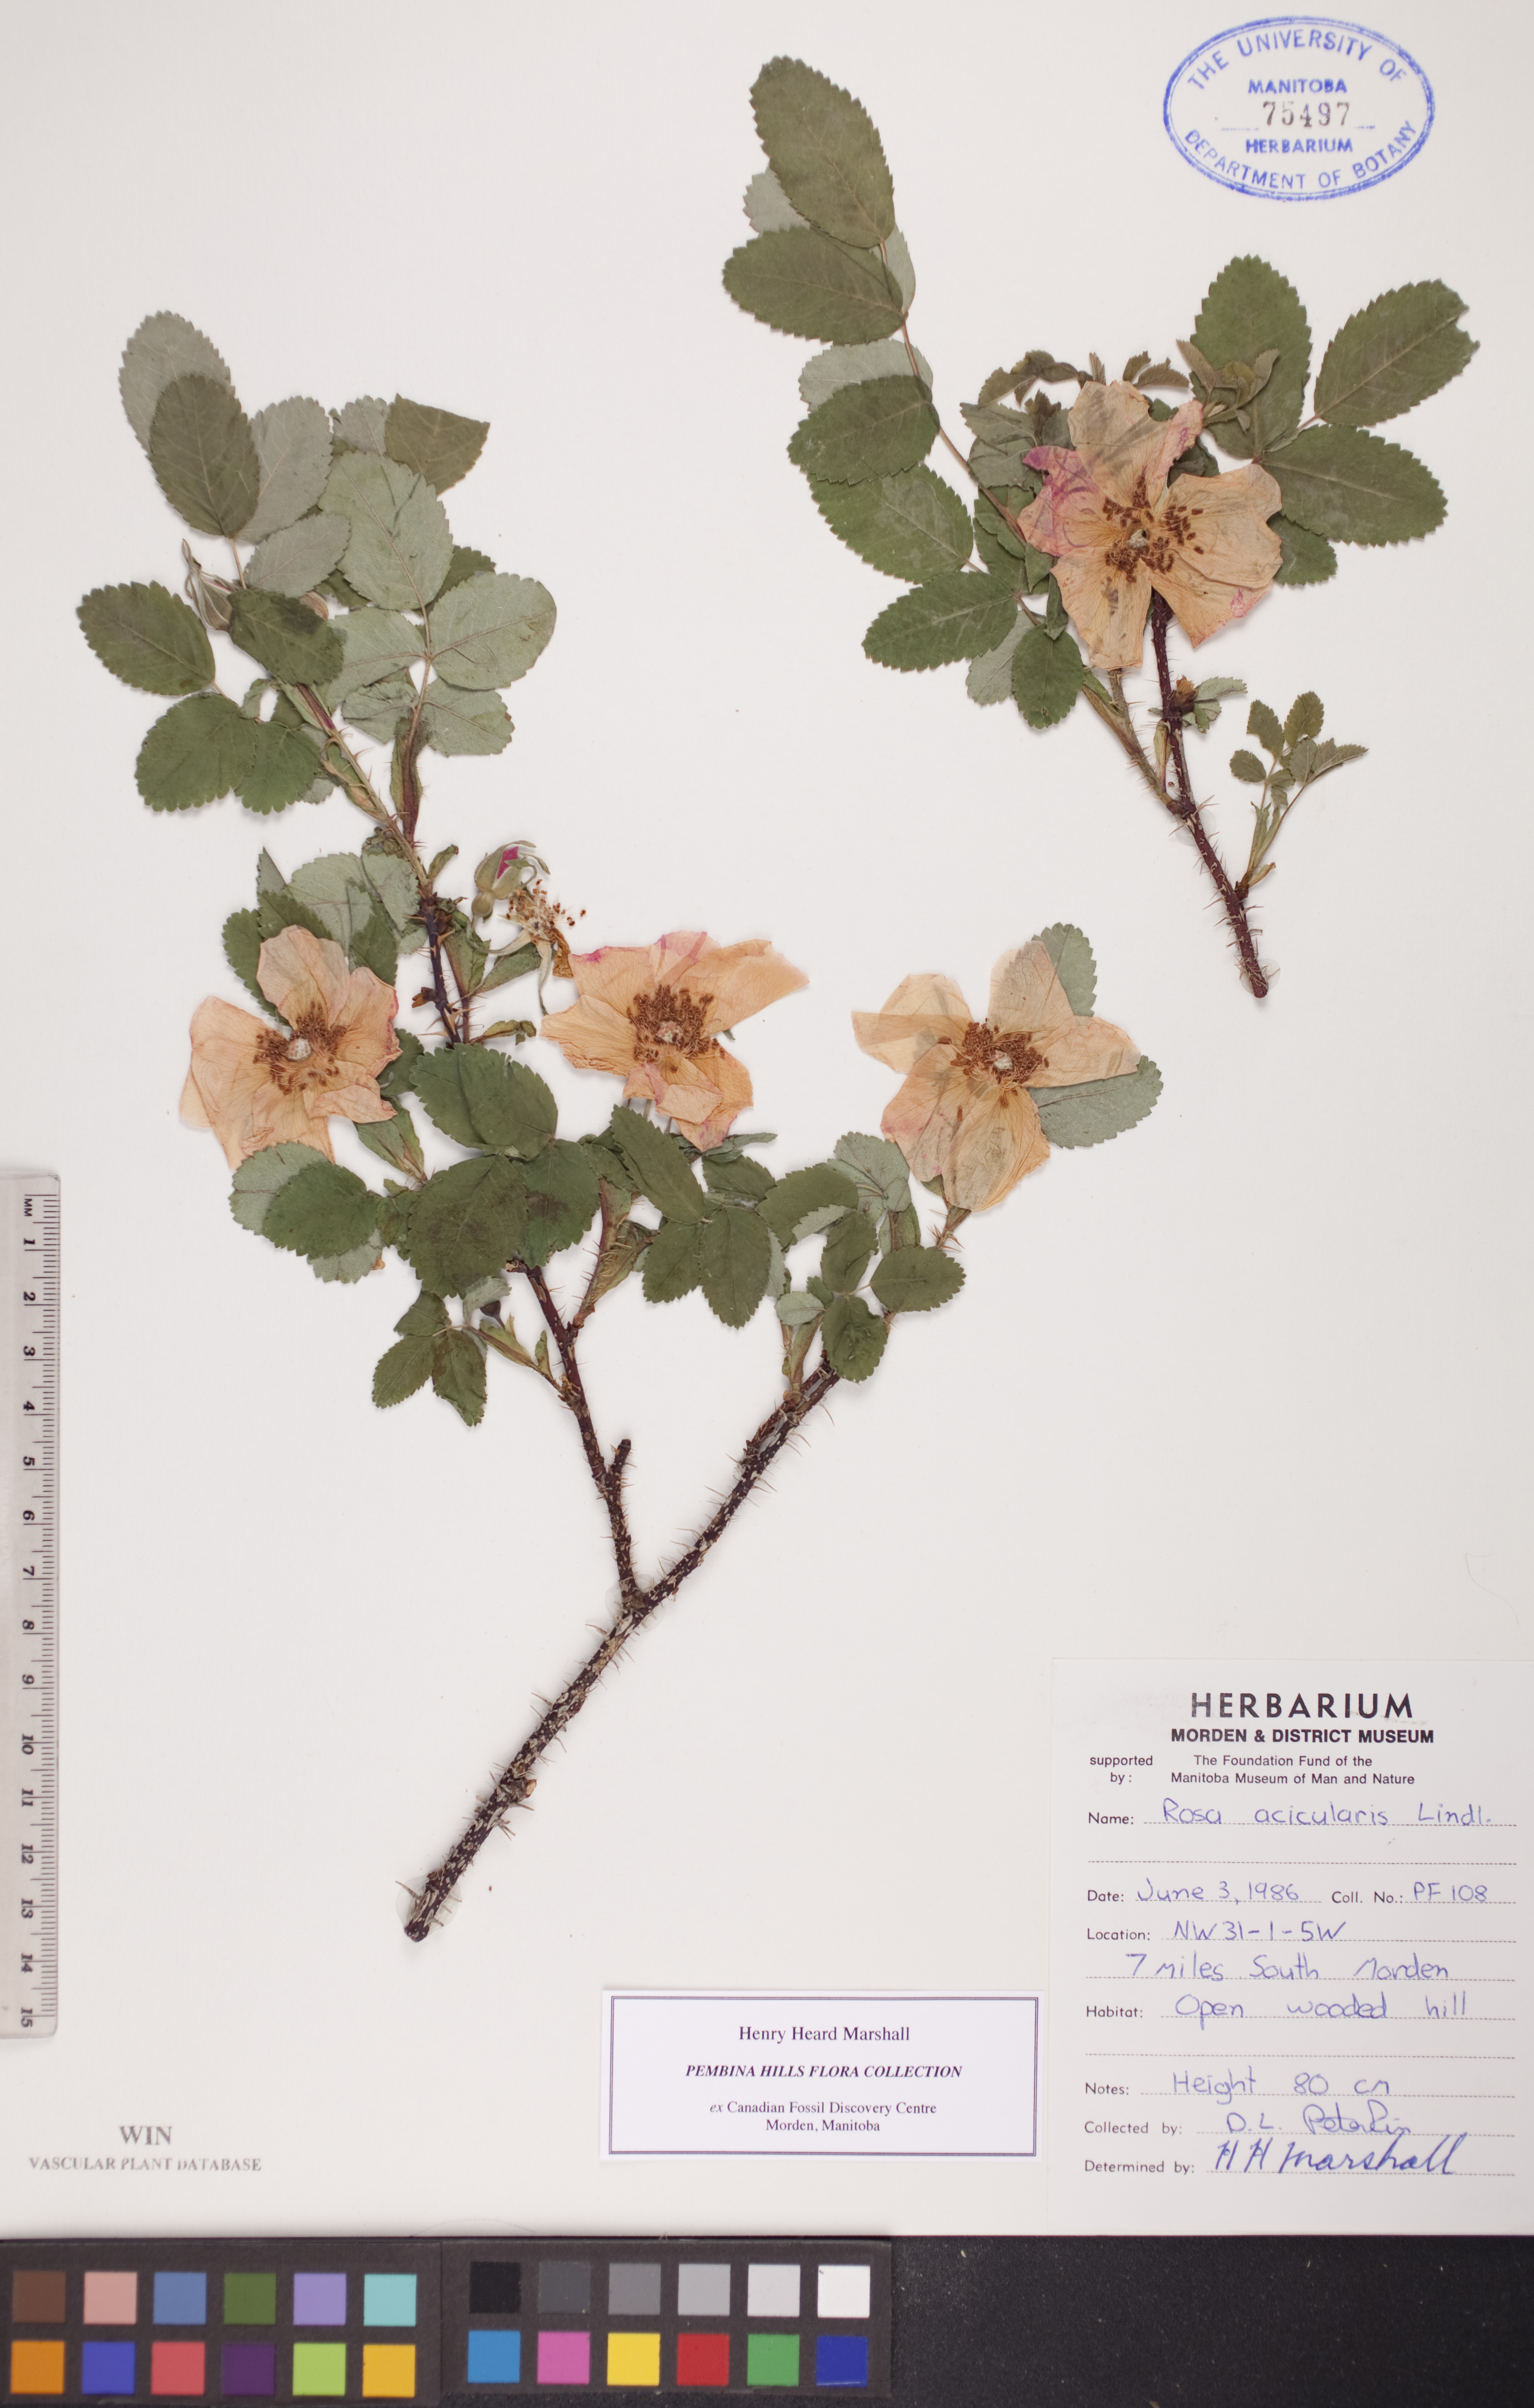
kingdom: Plantae
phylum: Tracheophyta
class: Magnoliopsida
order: Rosales
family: Rosaceae
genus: Rosa
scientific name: Rosa acicularis
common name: Prickly rose
